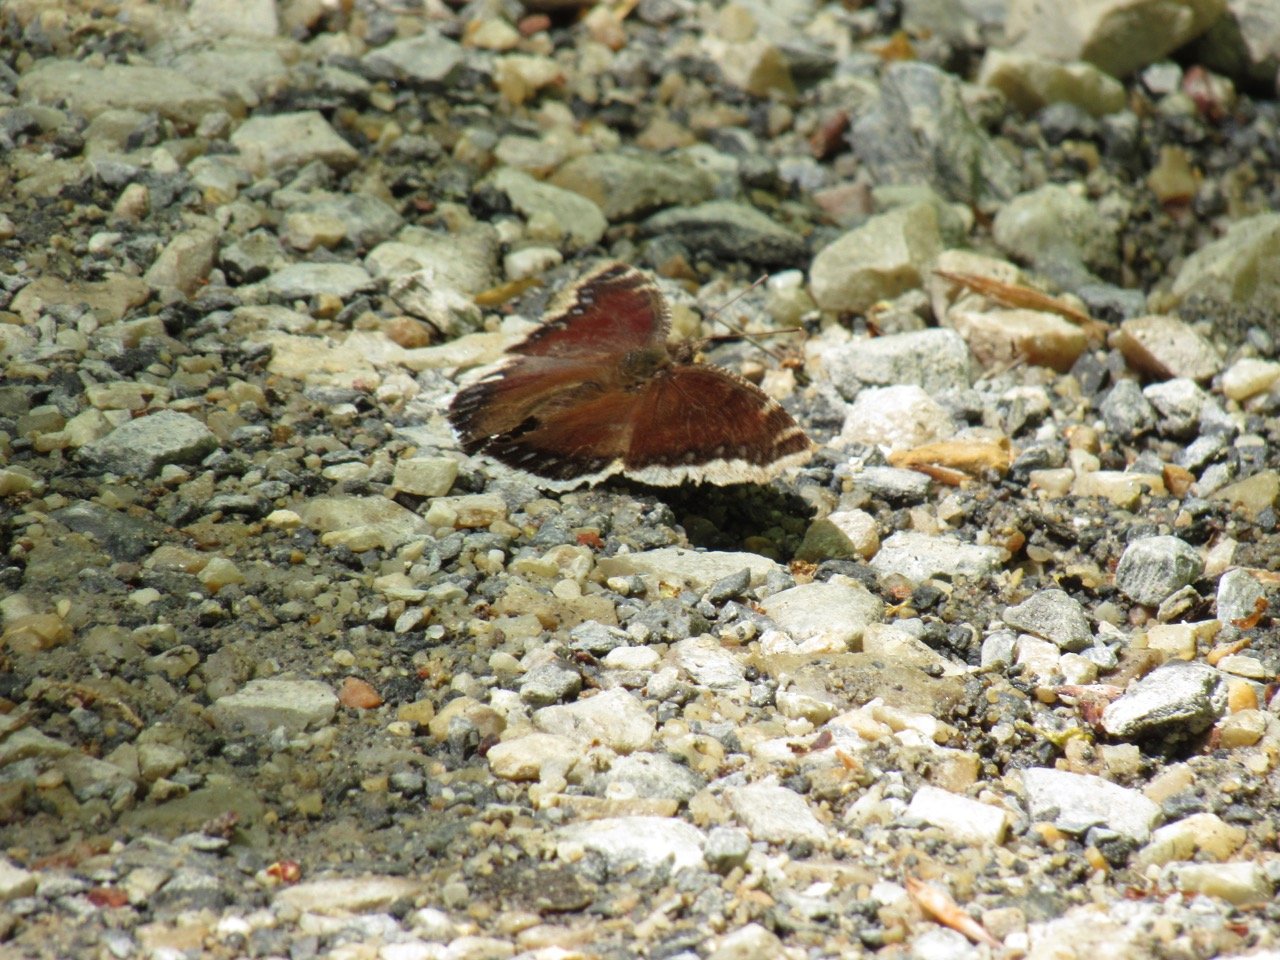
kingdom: Animalia
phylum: Arthropoda
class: Insecta
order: Lepidoptera
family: Nymphalidae
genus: Nymphalis
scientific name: Nymphalis antiopa
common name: Mourning Cloak
